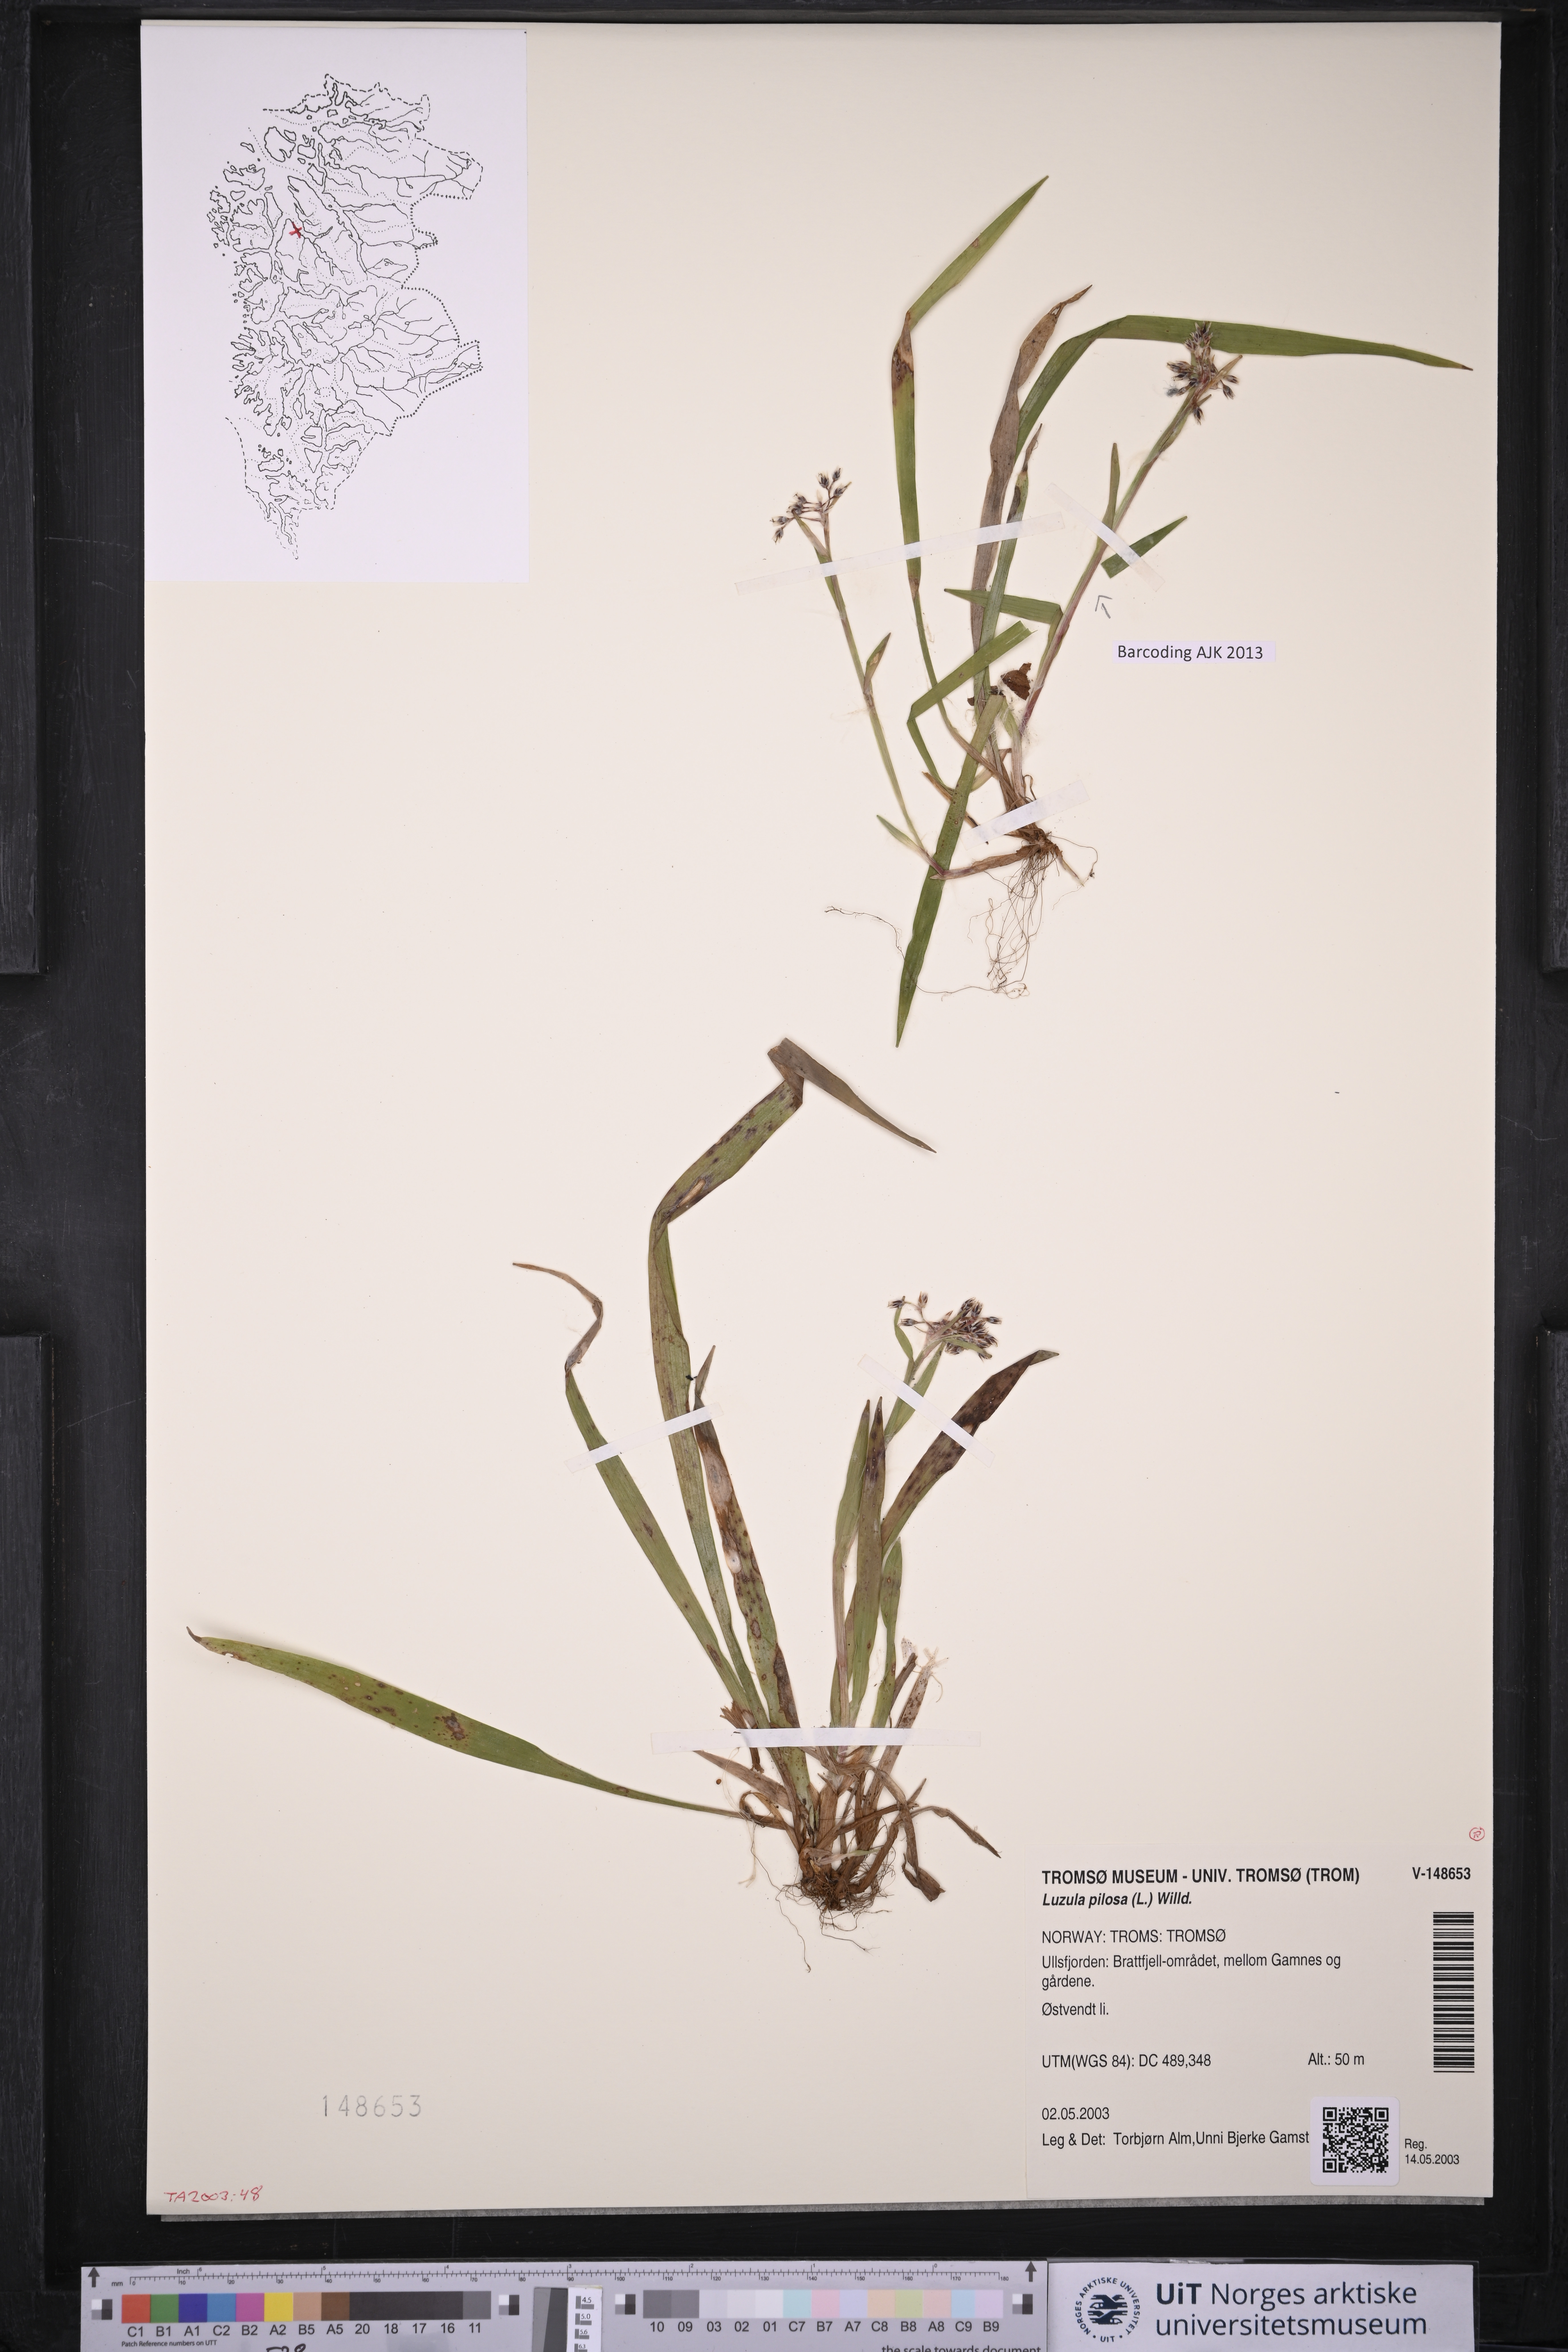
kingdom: Plantae
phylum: Tracheophyta
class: Liliopsida
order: Poales
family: Juncaceae
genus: Luzula
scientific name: Luzula pilosa
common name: Hairy wood-rush
